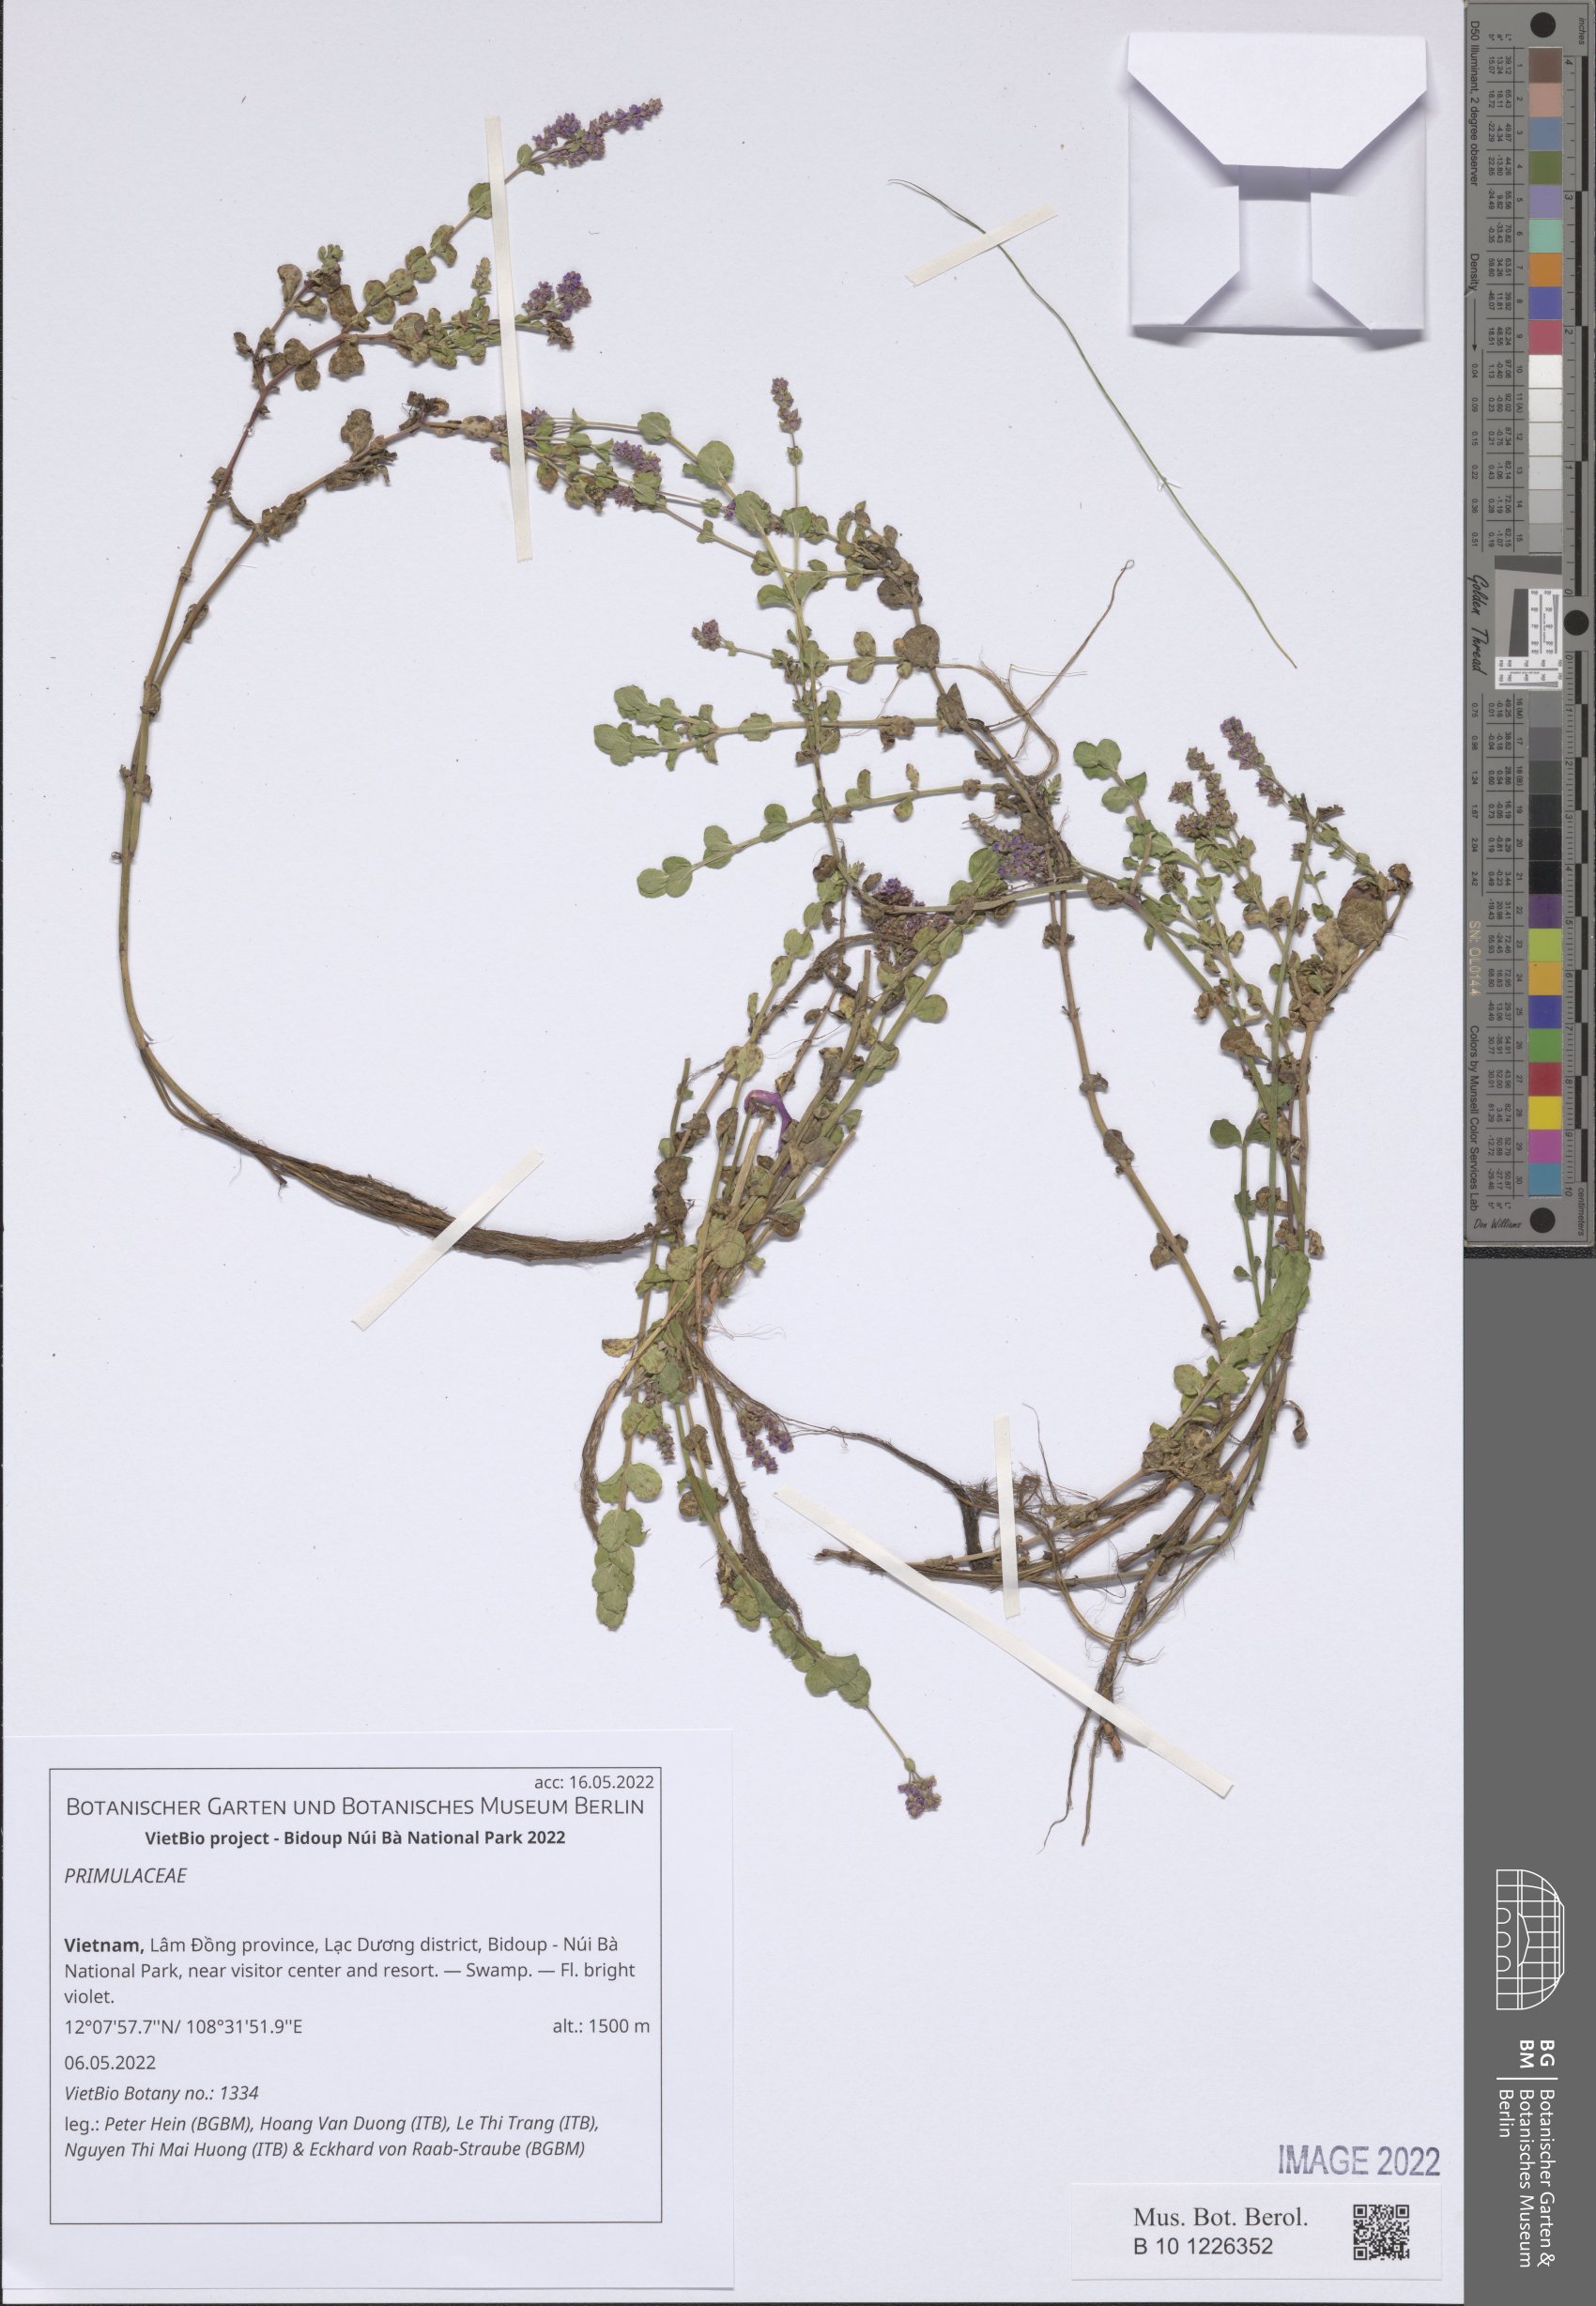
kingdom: Plantae
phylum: Tracheophyta
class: Magnoliopsida
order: Ericales
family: Primulaceae
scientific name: Primulaceae
